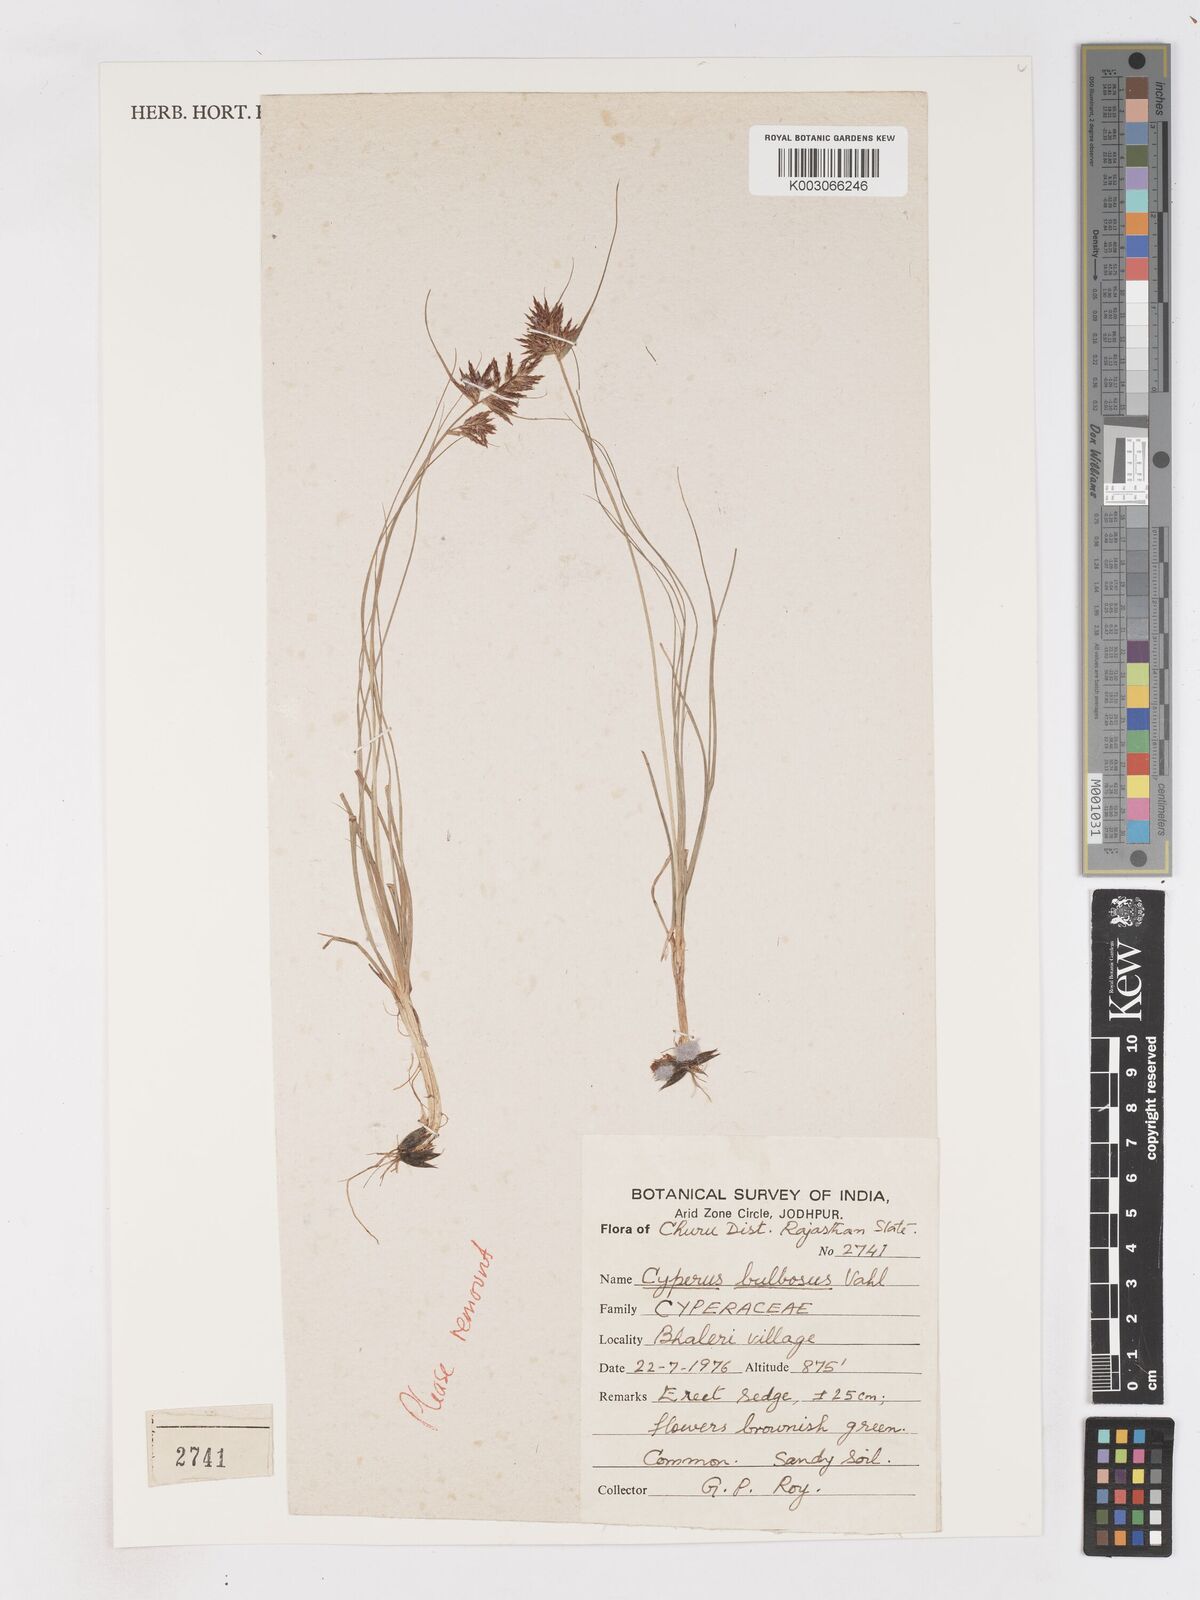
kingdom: Plantae
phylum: Tracheophyta
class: Liliopsida
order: Poales
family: Cyperaceae
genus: Cyperus
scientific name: Cyperus bulbosus
